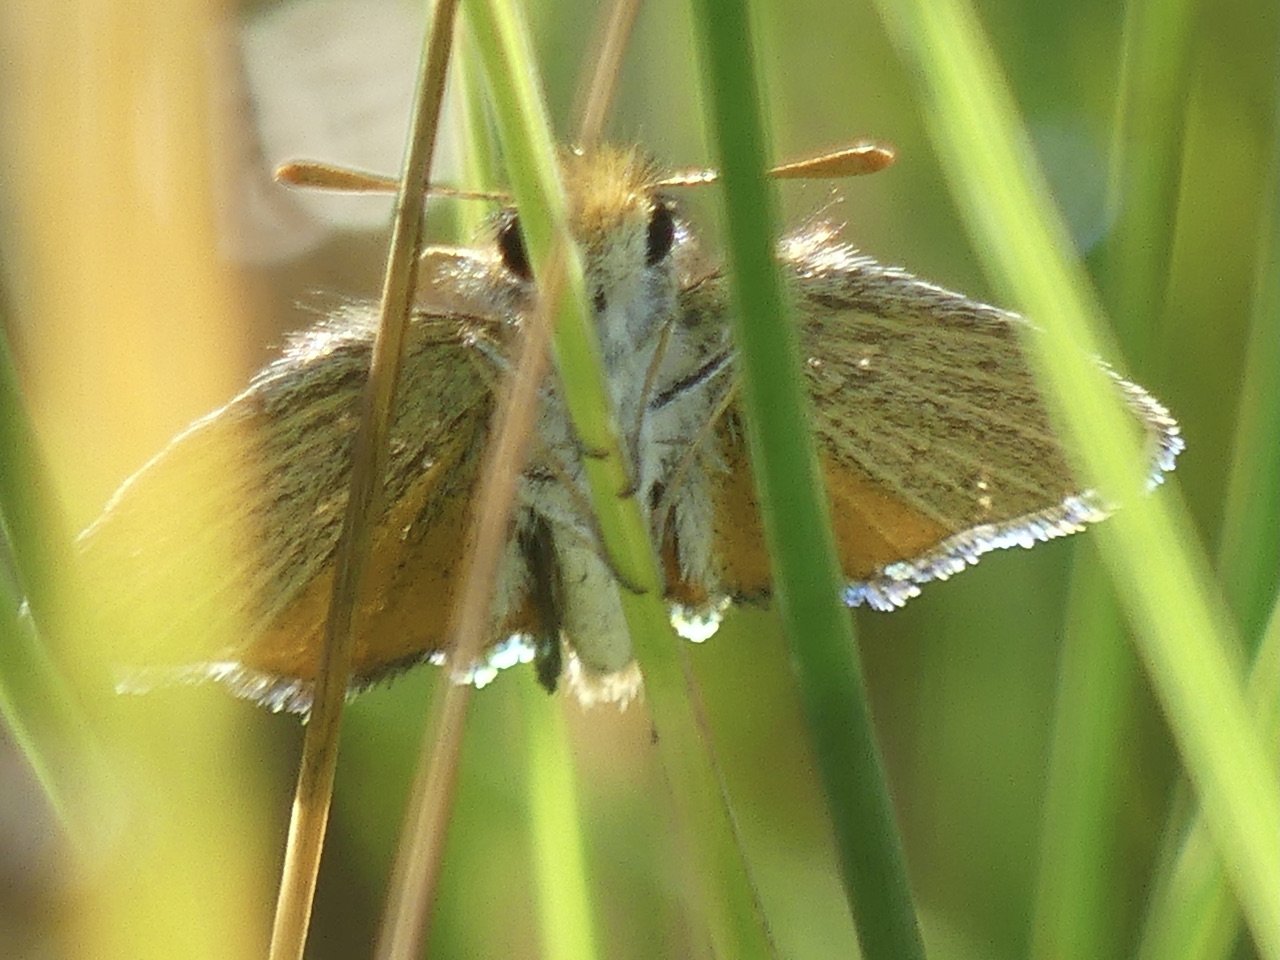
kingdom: Animalia
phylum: Arthropoda
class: Insecta
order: Lepidoptera
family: Hesperiidae
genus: Oarisma
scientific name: Oarisma garita
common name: Garita Skipperling
